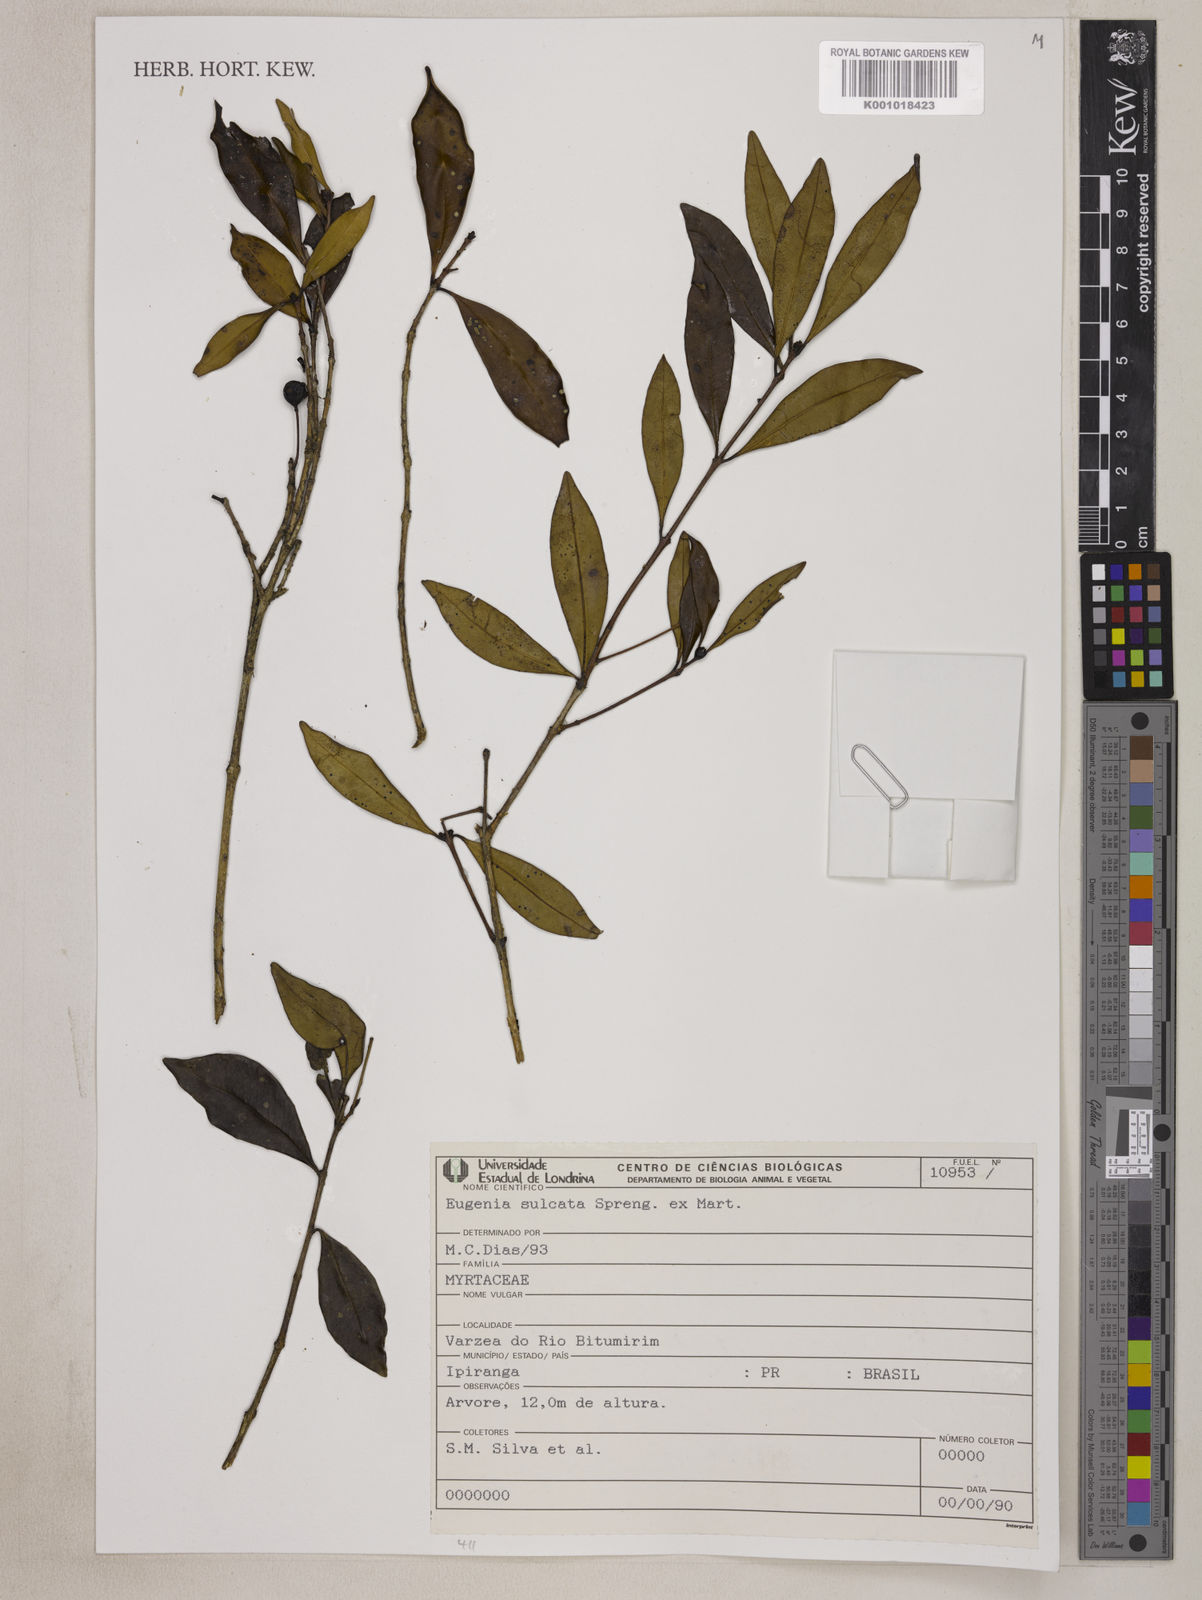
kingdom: Plantae
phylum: Tracheophyta
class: Magnoliopsida
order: Myrtales
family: Myrtaceae
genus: Eugenia
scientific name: Eugenia sulcata
